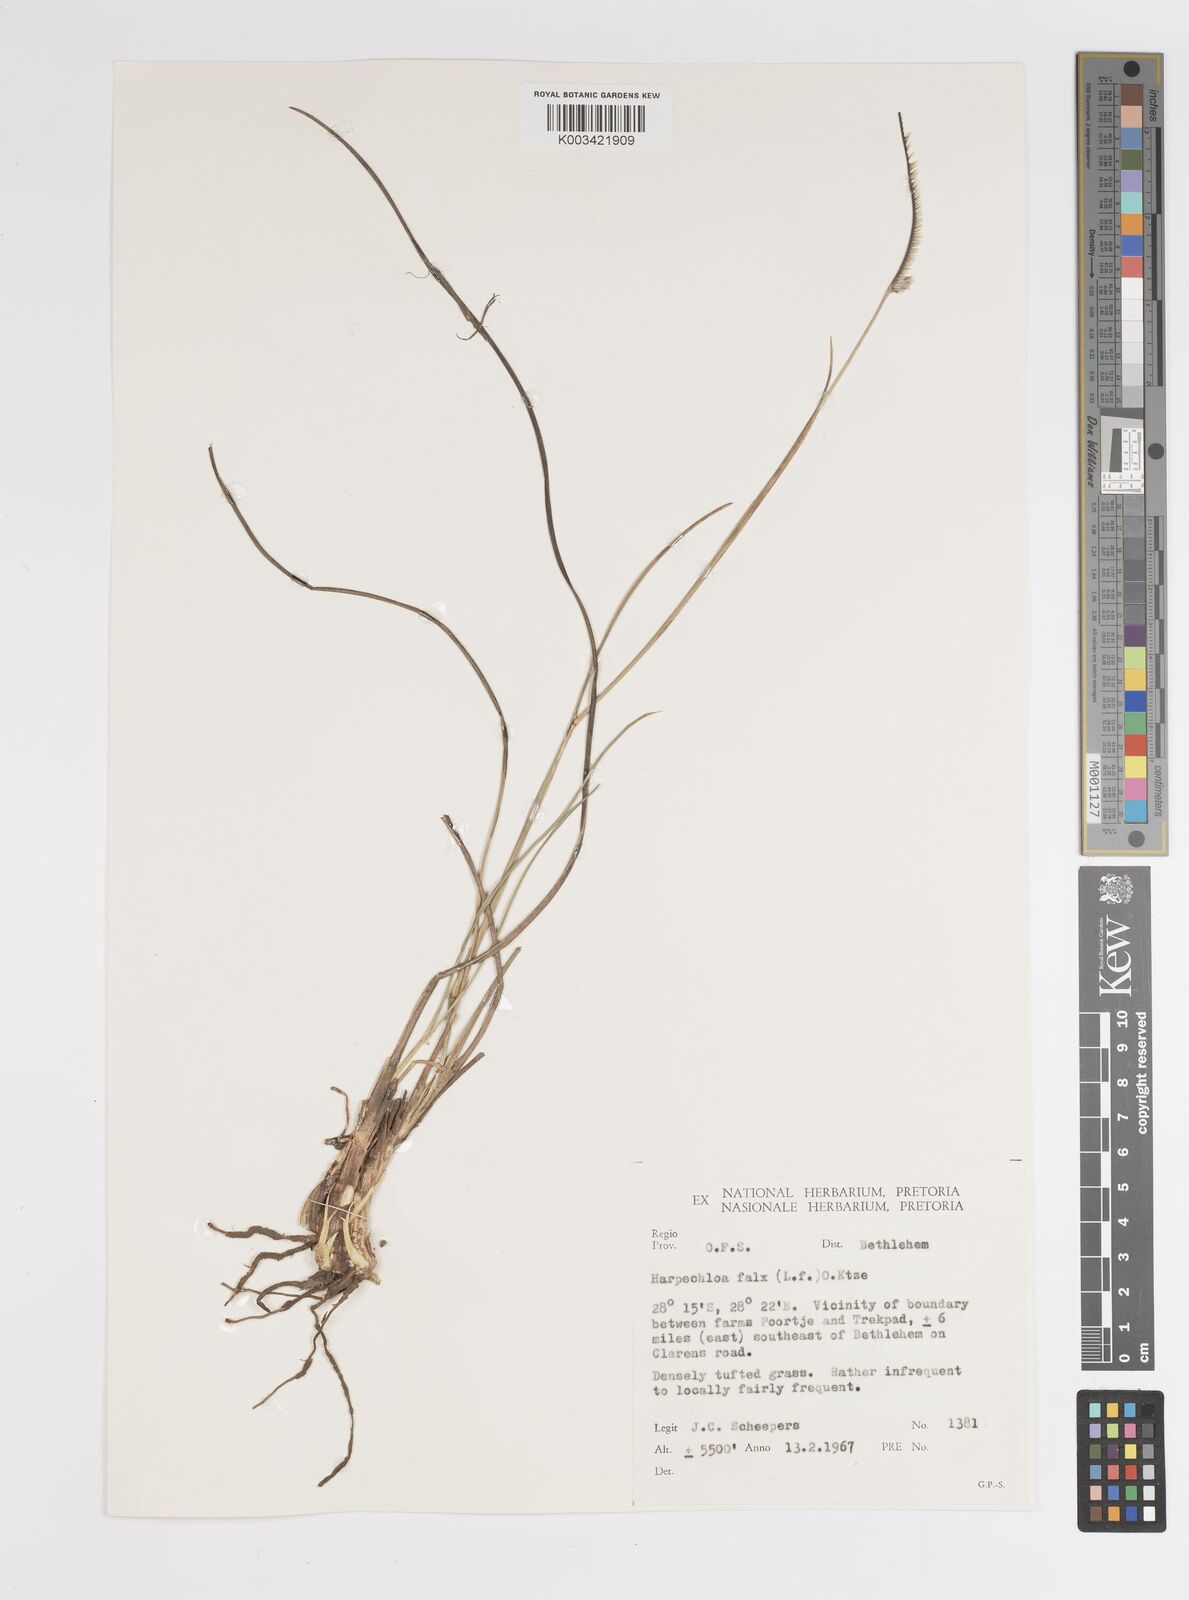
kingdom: Plantae
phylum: Tracheophyta
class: Liliopsida
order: Poales
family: Poaceae
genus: Harpochloa
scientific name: Harpochloa falx
